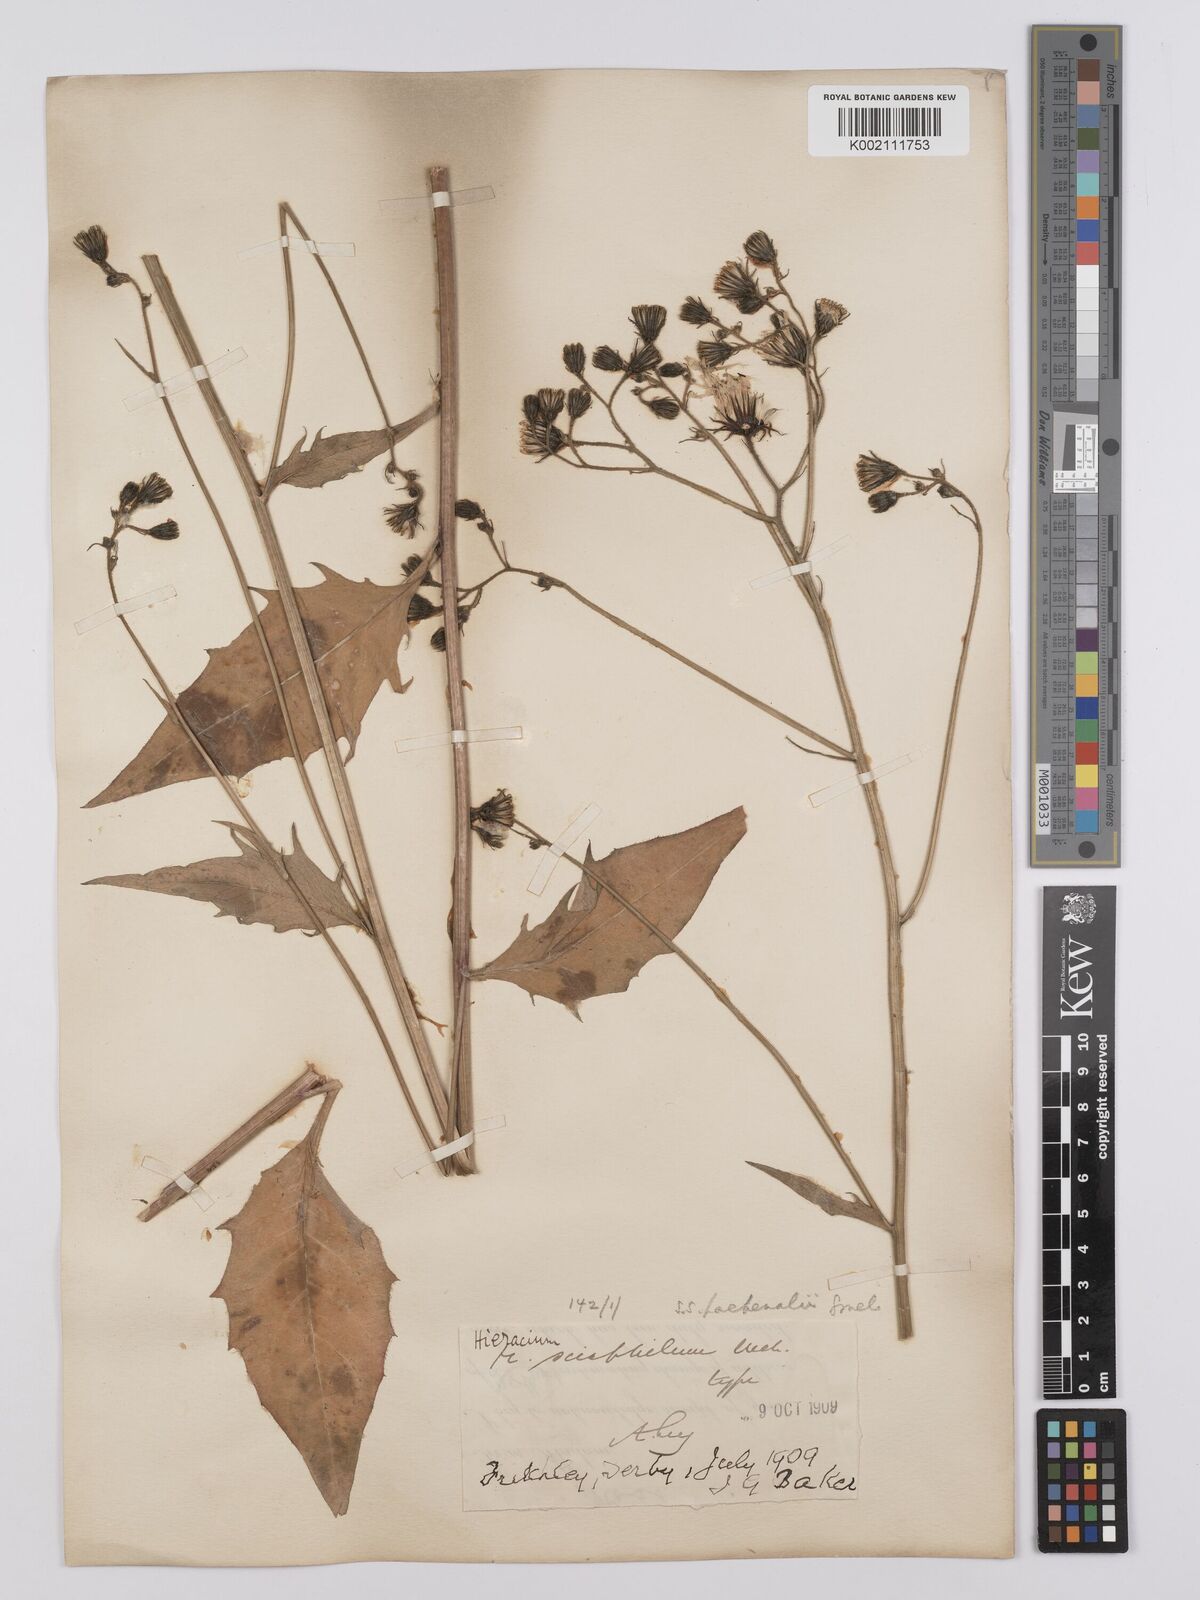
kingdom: Plantae
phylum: Tracheophyta
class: Magnoliopsida
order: Asterales
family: Asteraceae
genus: Hieracium
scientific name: Hieracium lachenalii
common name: Common hawkweed
